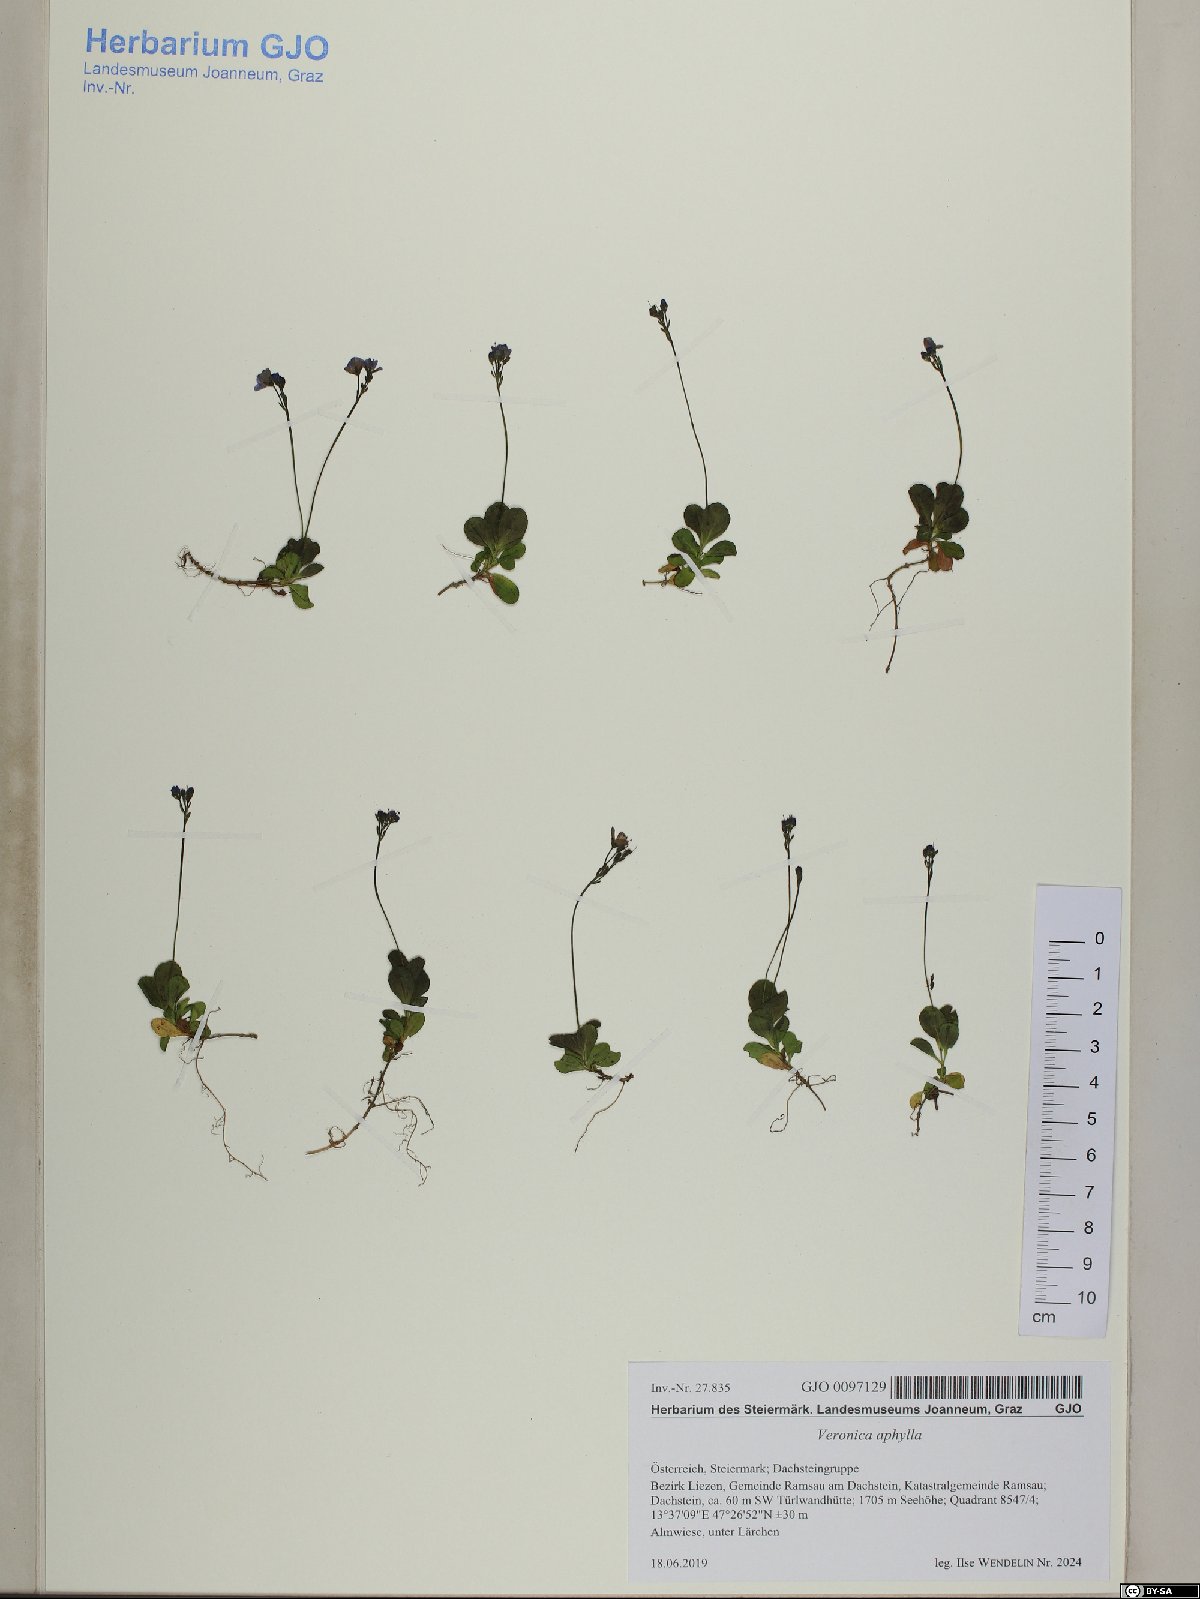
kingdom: Plantae
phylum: Tracheophyta
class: Magnoliopsida
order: Lamiales
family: Plantaginaceae
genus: Veronica
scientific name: Veronica aphylla
